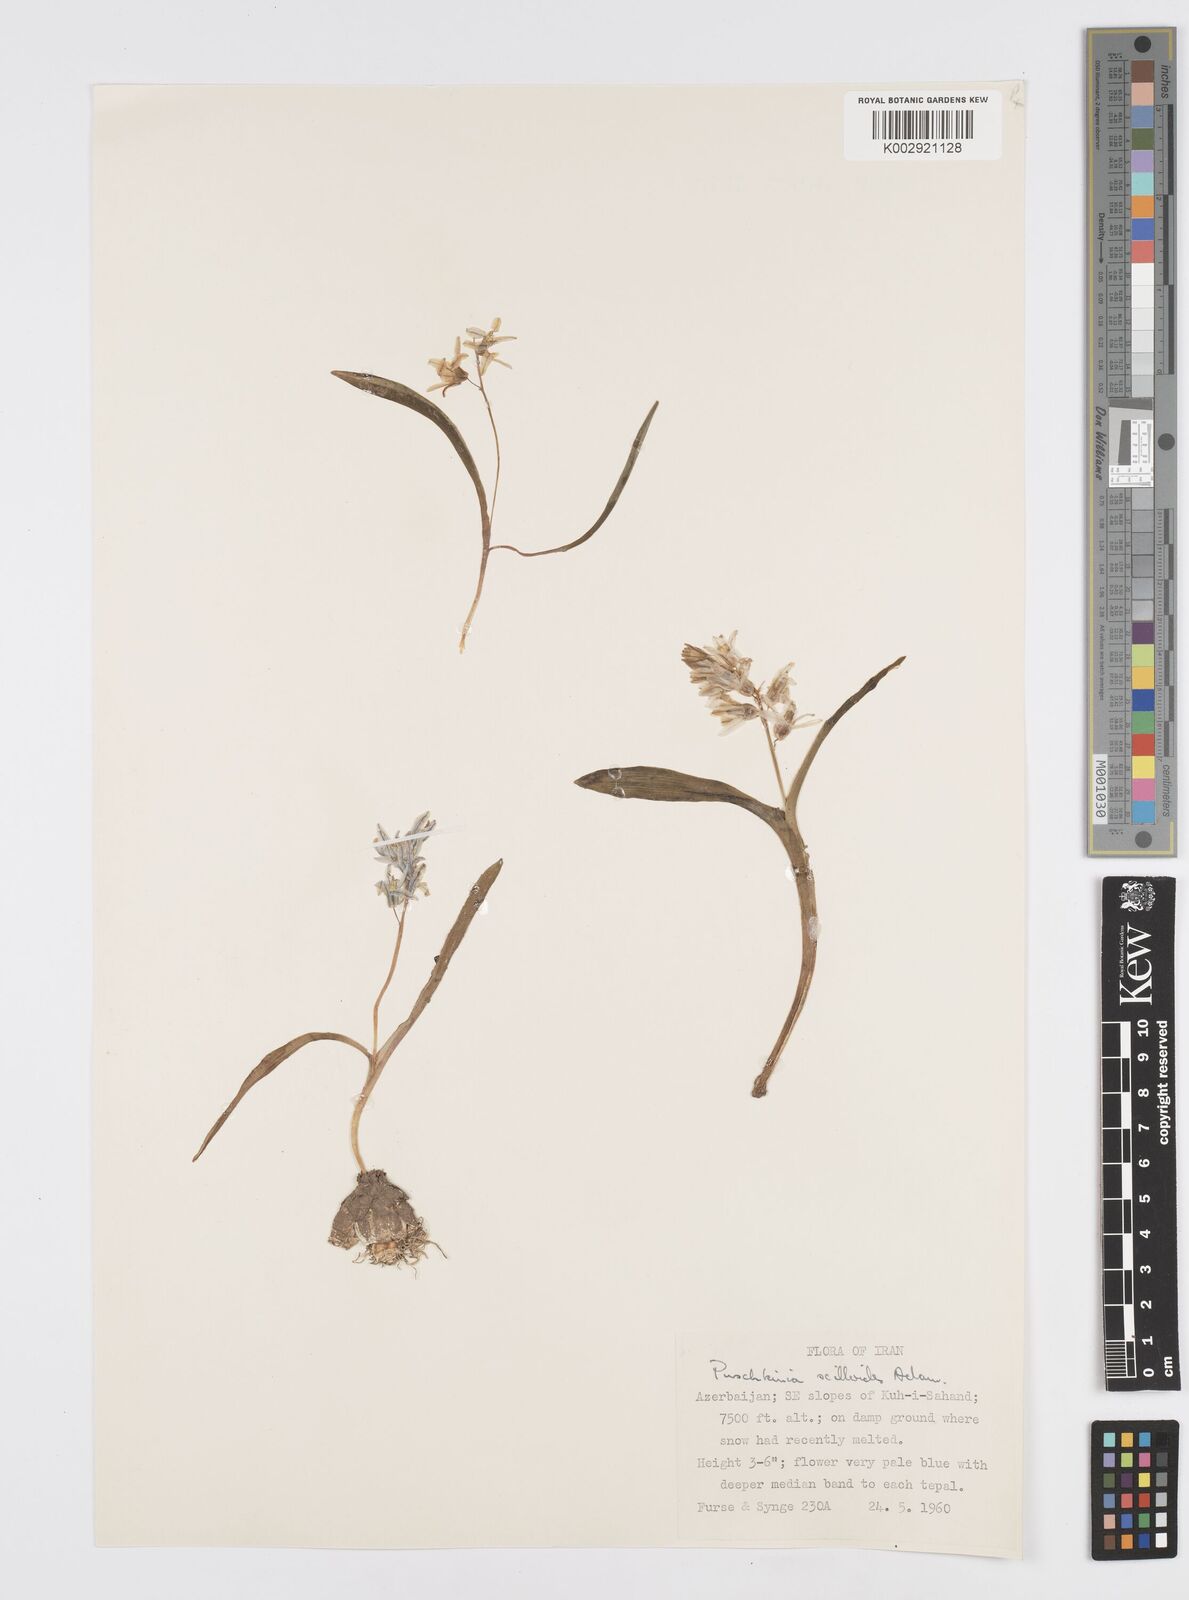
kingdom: Plantae
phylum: Tracheophyta
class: Liliopsida
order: Asparagales
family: Asparagaceae
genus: Puschkinia
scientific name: Puschkinia scilloides
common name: Striped squill
